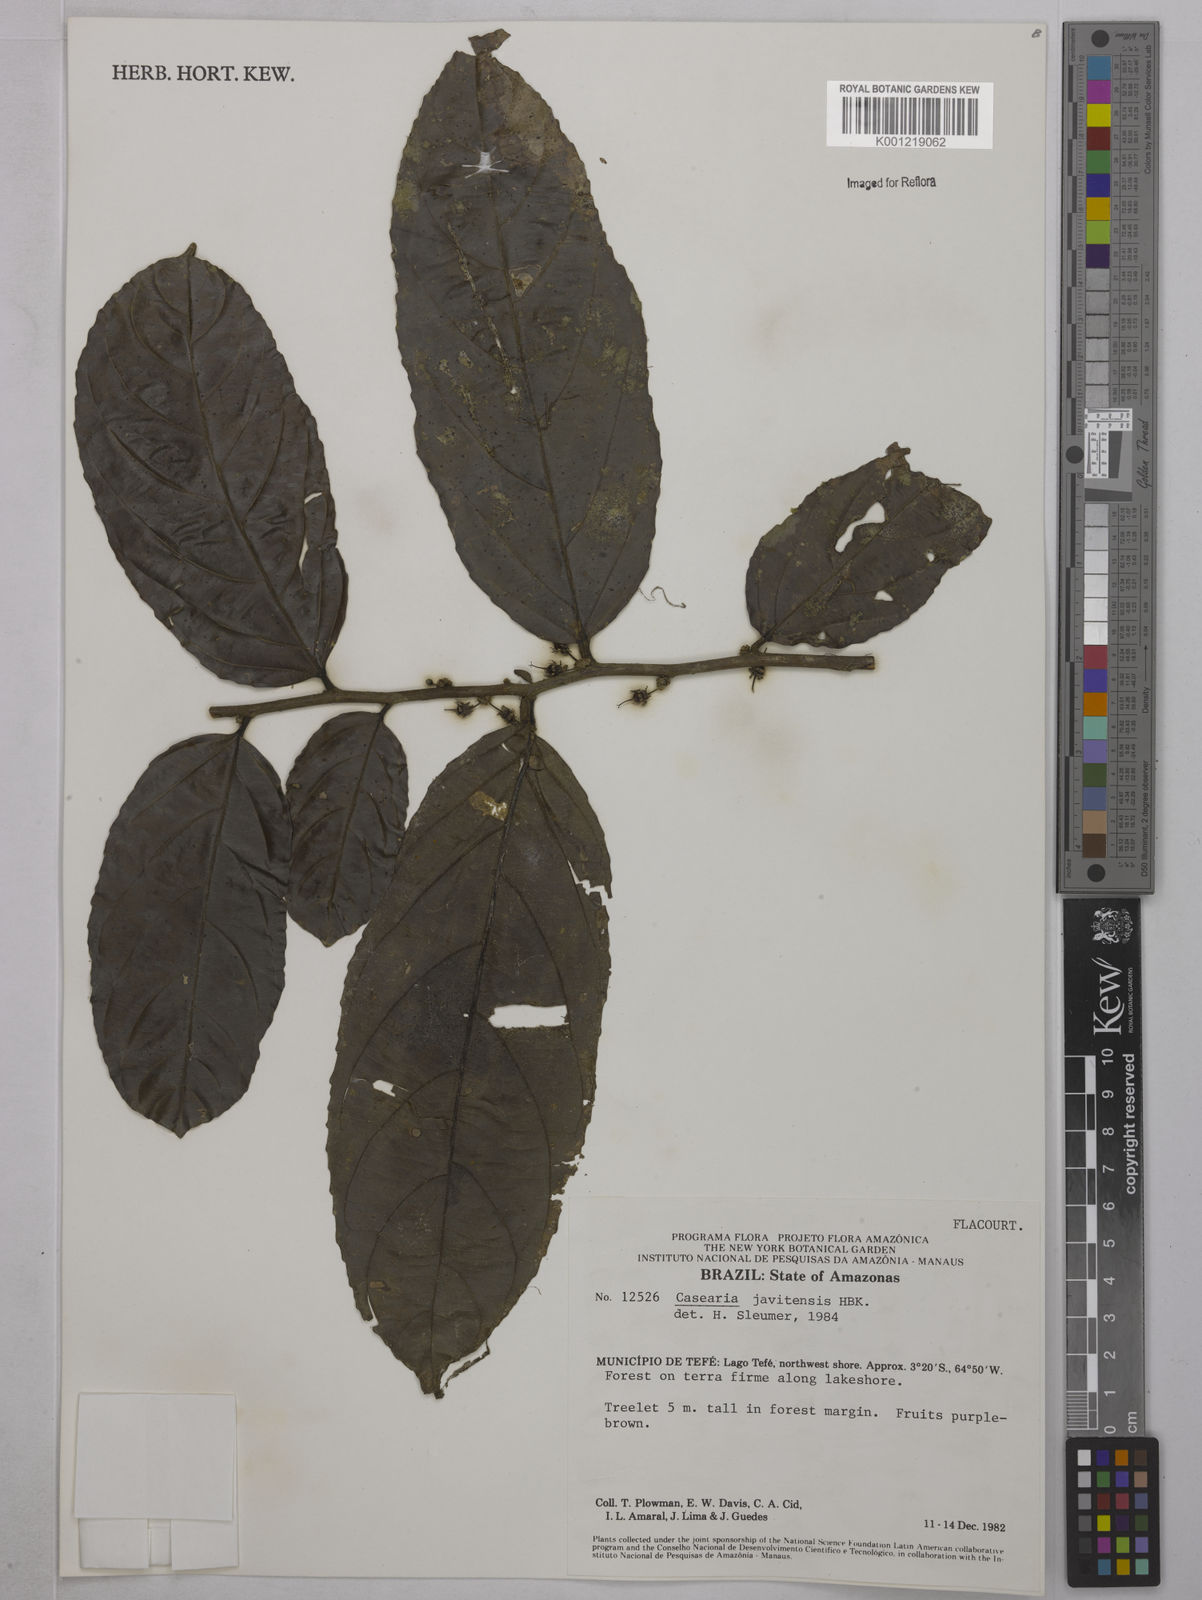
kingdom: Plantae
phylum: Tracheophyta
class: Magnoliopsida
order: Malpighiales
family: Salicaceae
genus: Piparea
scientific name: Piparea multiflora
